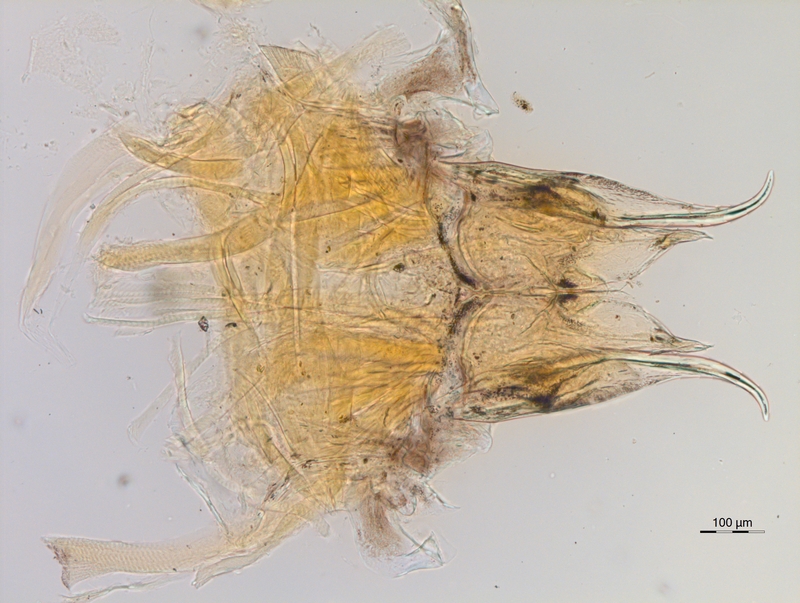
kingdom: Animalia
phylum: Arthropoda
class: Diplopoda
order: Chordeumatida
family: Anthroleucosomatidae
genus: Anamastigona
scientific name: Anamastigona hispidula
